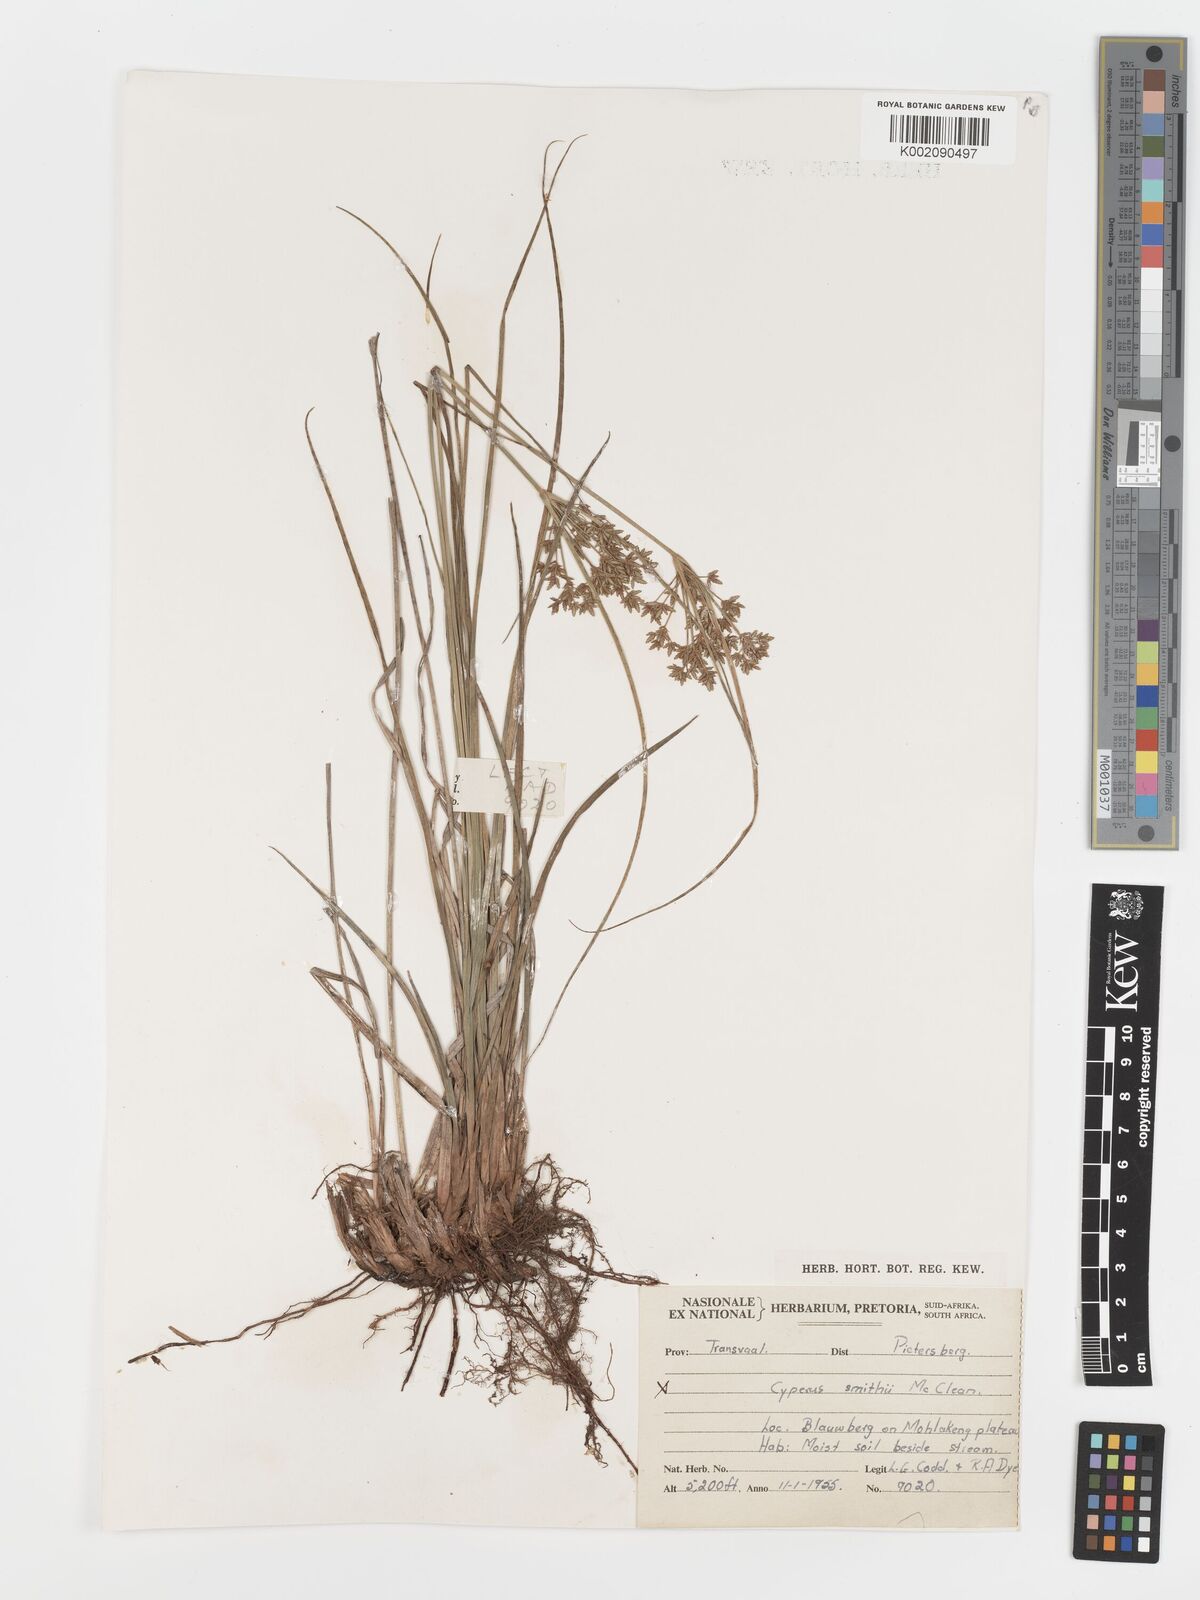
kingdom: Plantae
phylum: Tracheophyta
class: Liliopsida
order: Poales
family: Cyperaceae
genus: Cyperus
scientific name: Cyperus sphaerospermus
